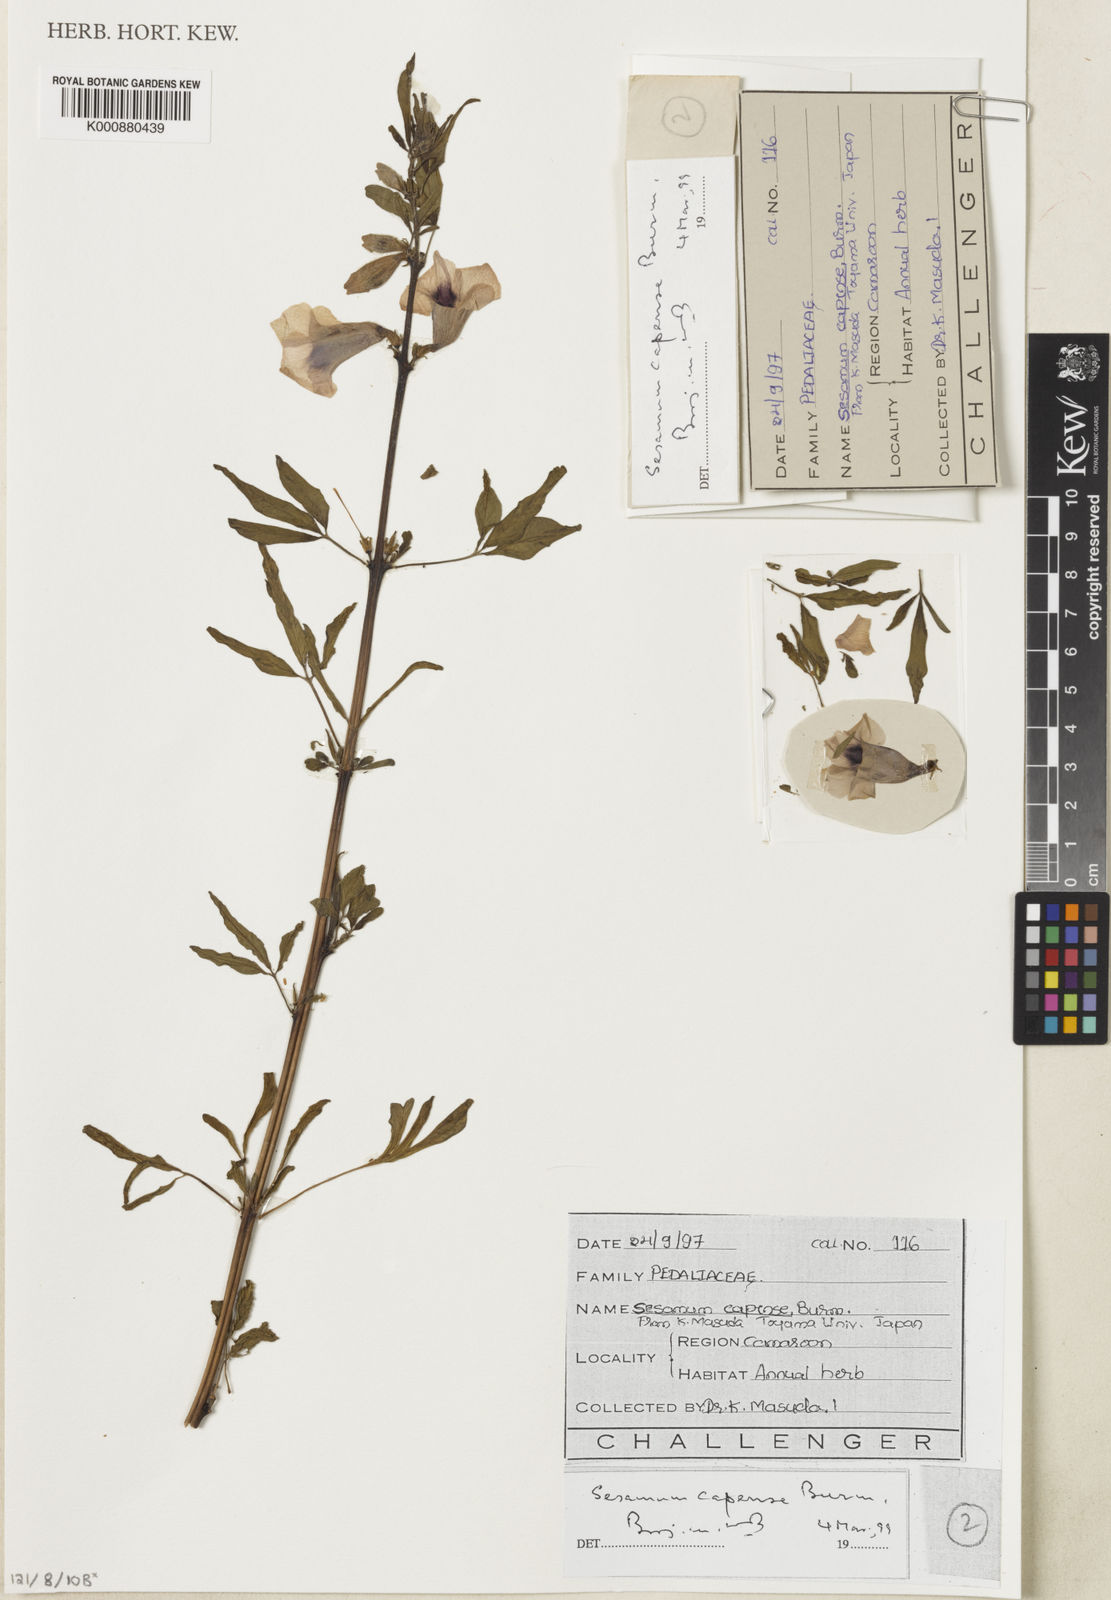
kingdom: Plantae
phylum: Tracheophyta
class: Magnoliopsida
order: Lamiales
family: Pedaliaceae
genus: Sesamum
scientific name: Sesamum capense
